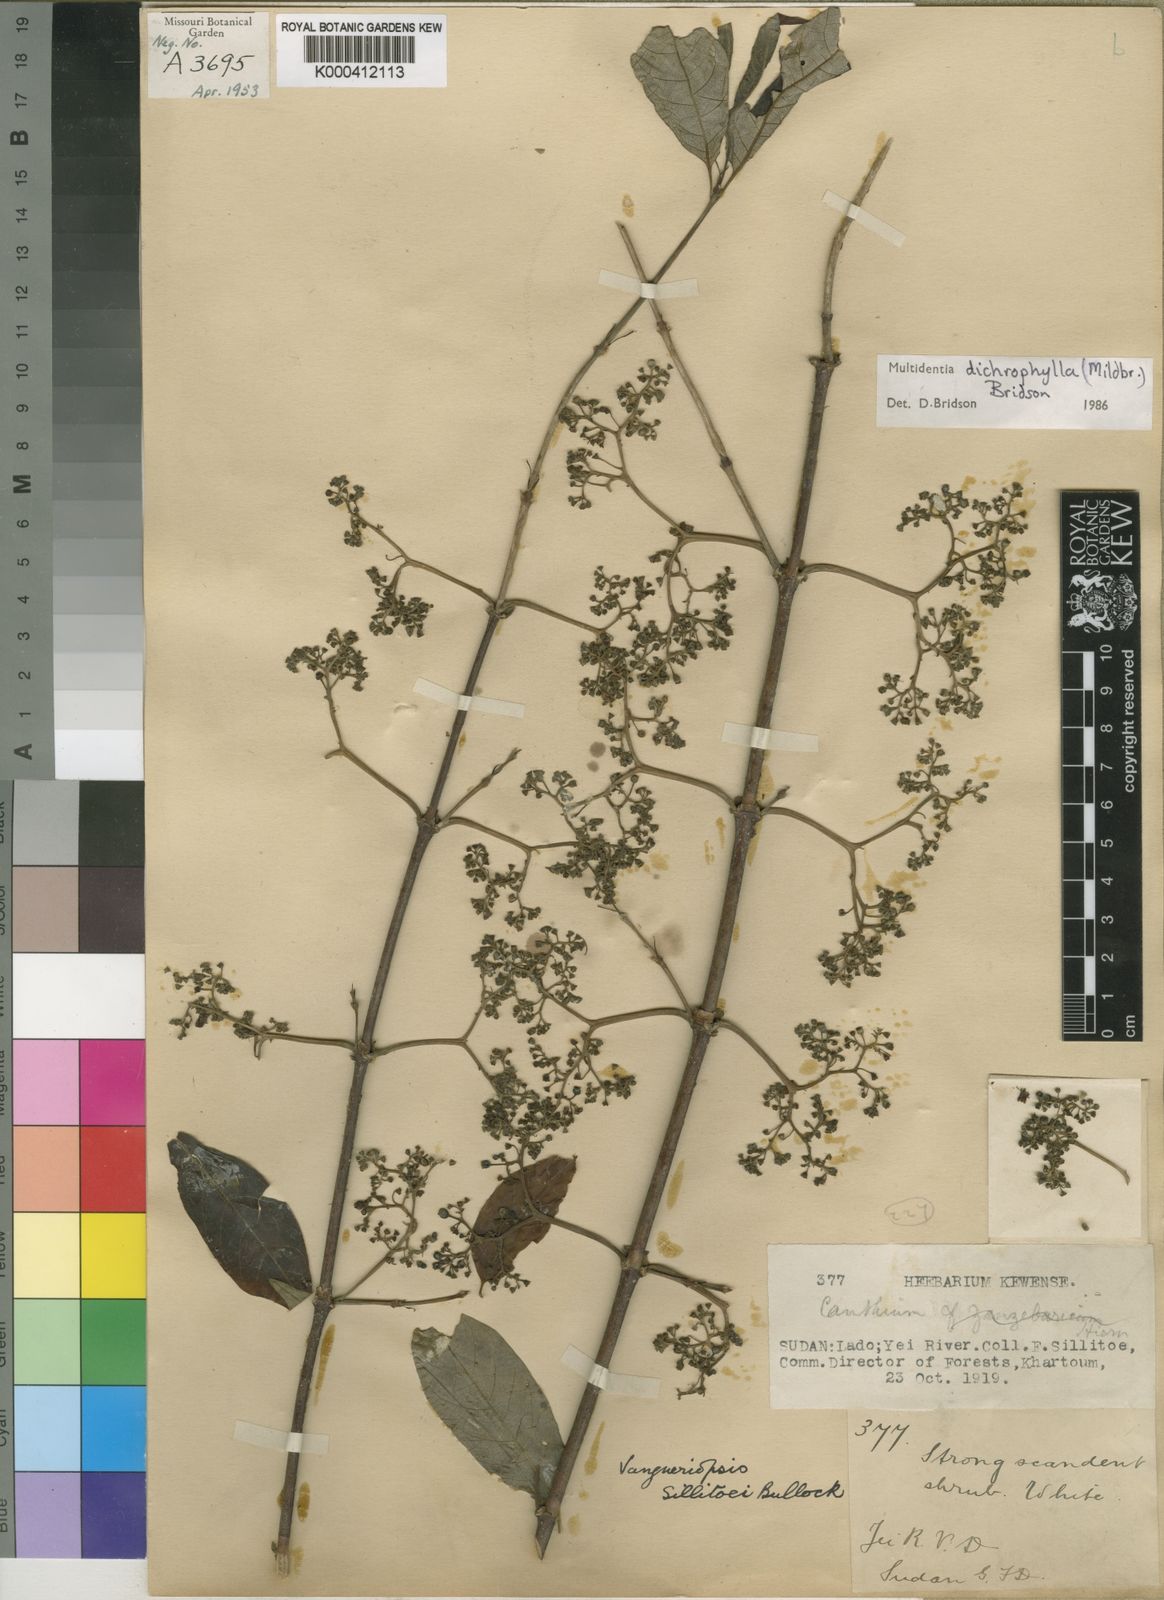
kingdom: Plantae
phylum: Tracheophyta
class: Magnoliopsida
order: Gentianales
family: Rubiaceae
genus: Multidentia
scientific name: Multidentia dichrophylla
